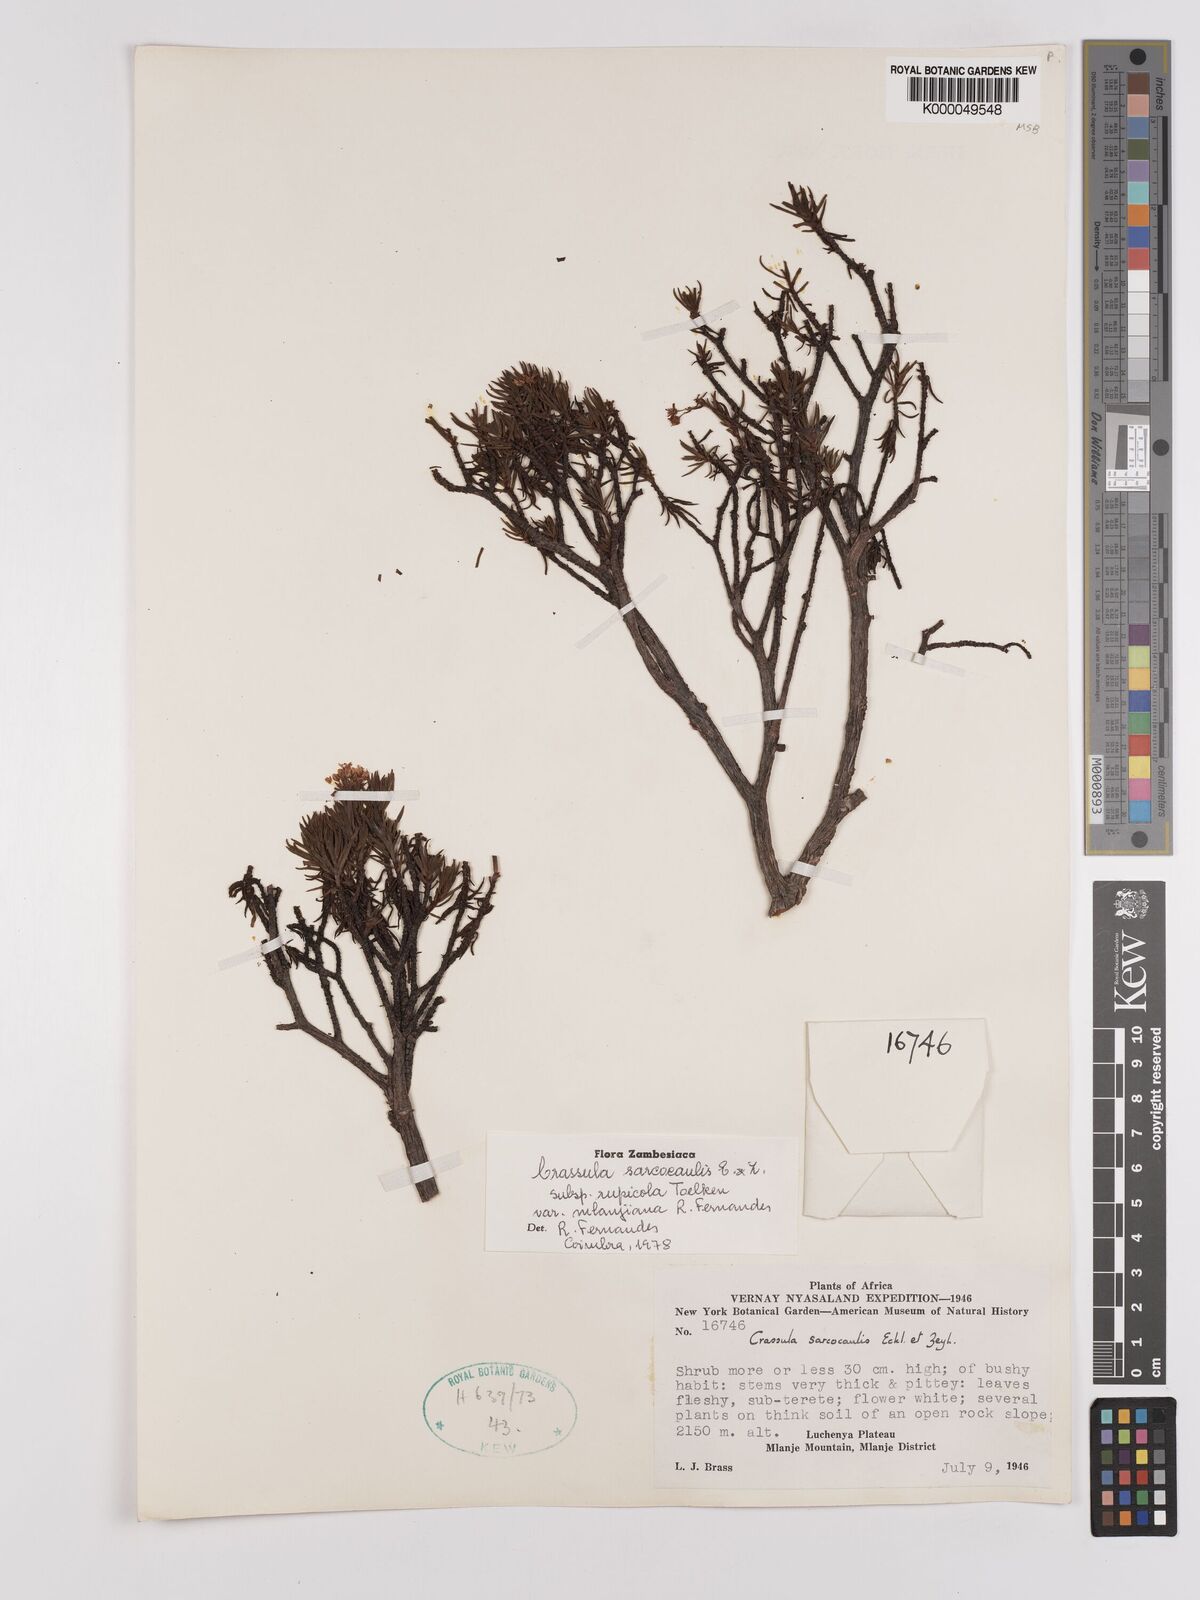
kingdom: Plantae
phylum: Tracheophyta
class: Magnoliopsida
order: Saxifragales
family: Crassulaceae
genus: Crassula
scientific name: Crassula sarcocaulis
